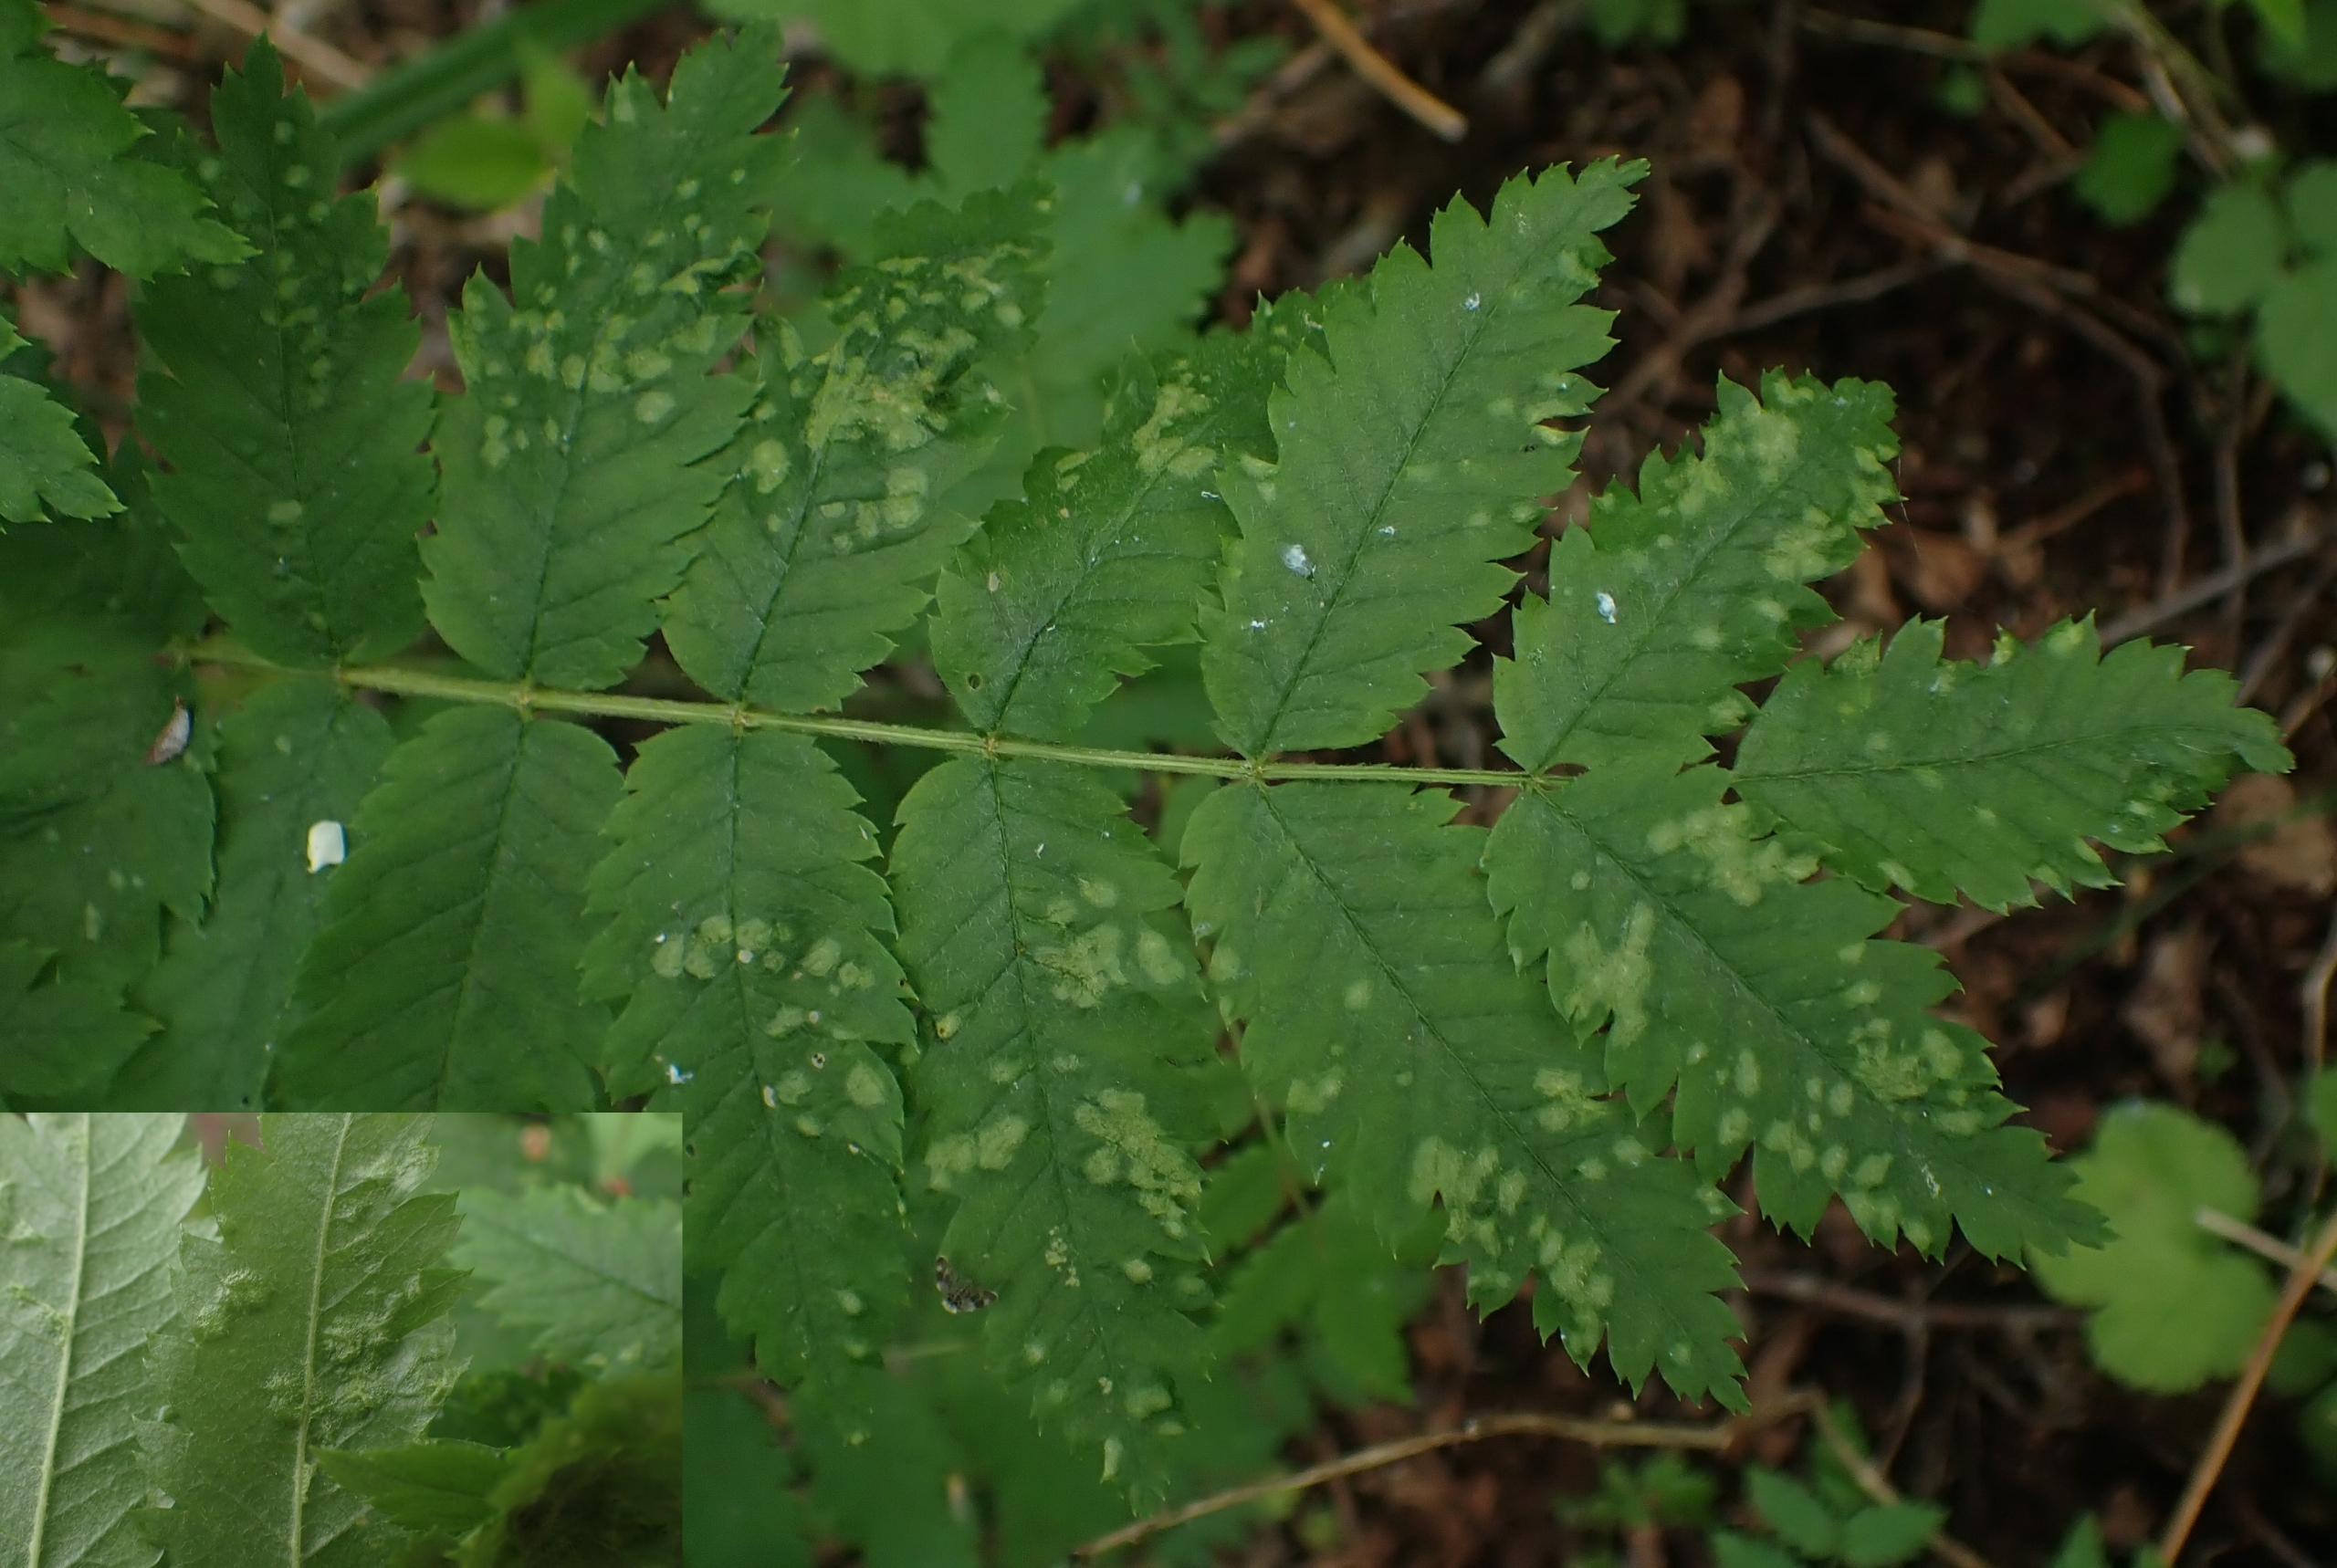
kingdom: Animalia
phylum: Arthropoda
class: Arachnida
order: Trombidiformes
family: Eriophyidae
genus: Eriophyes
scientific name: Eriophyes pyri
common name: Pærebladgalmide
